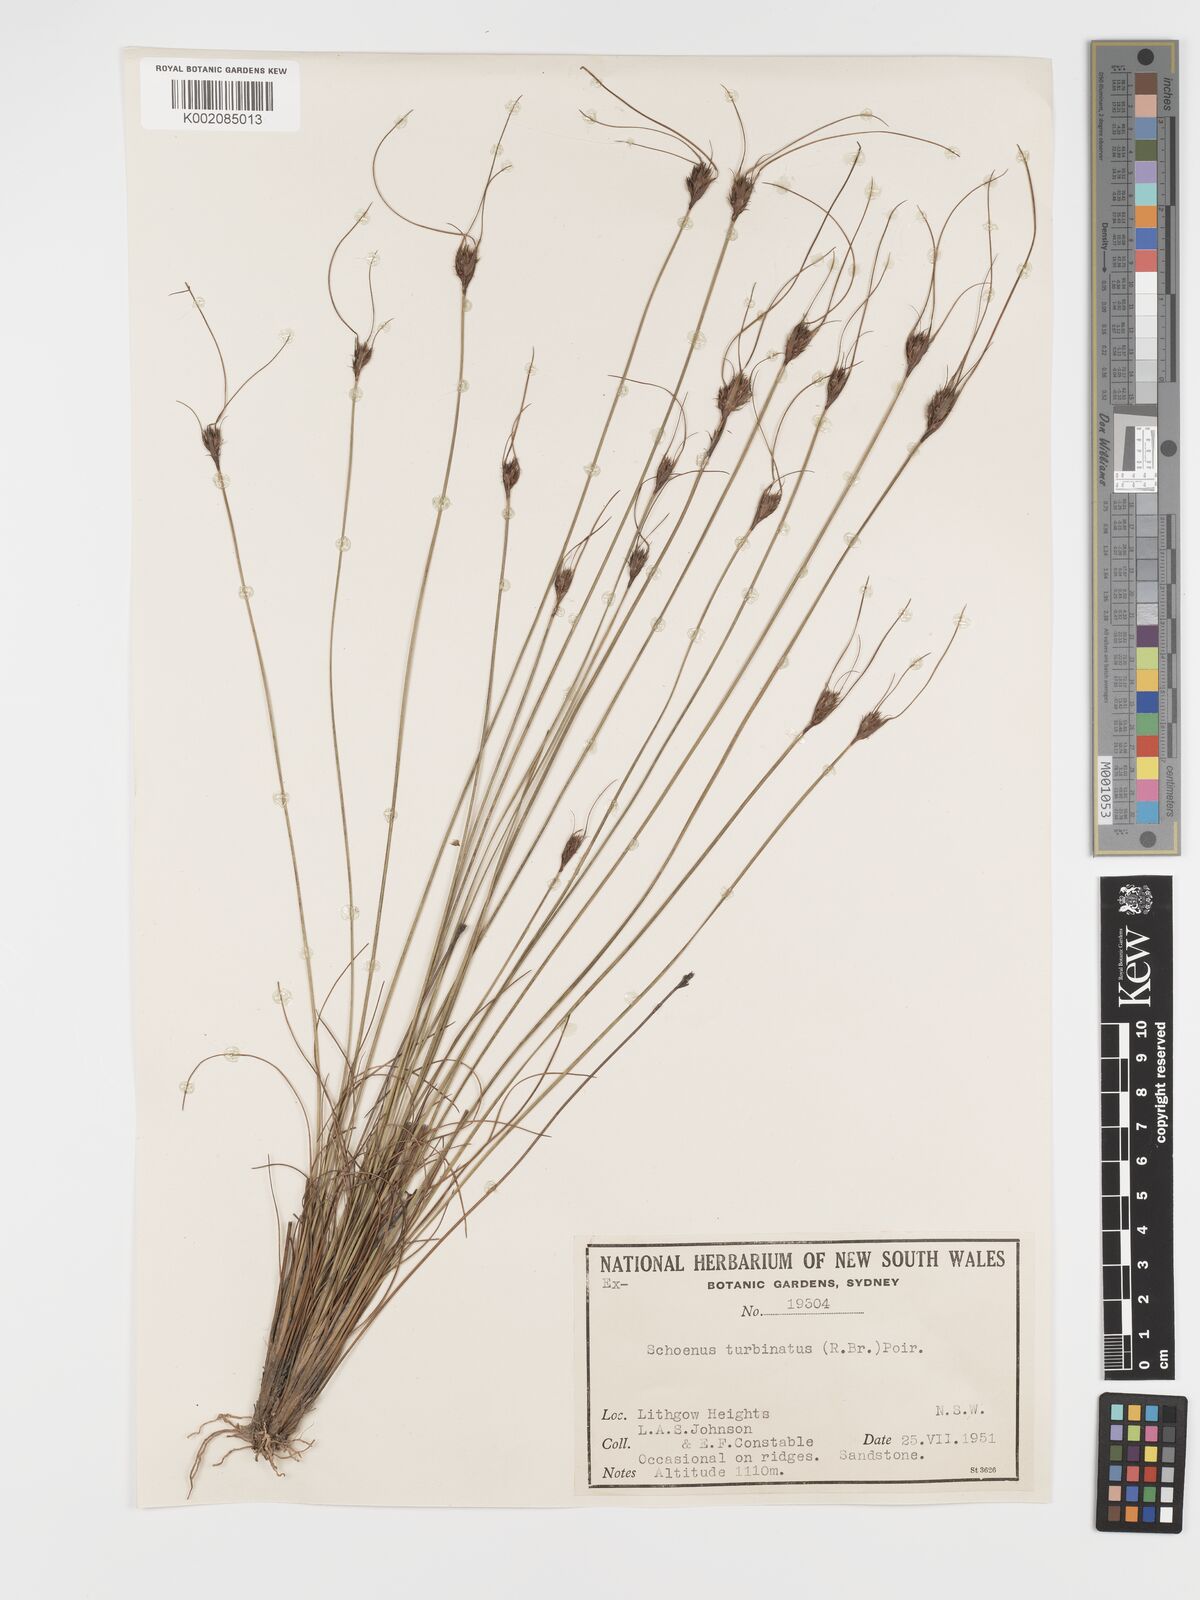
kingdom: Plantae
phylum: Tracheophyta
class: Liliopsida
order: Poales
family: Cyperaceae
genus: Schoenus
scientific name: Schoenus turbinatus
